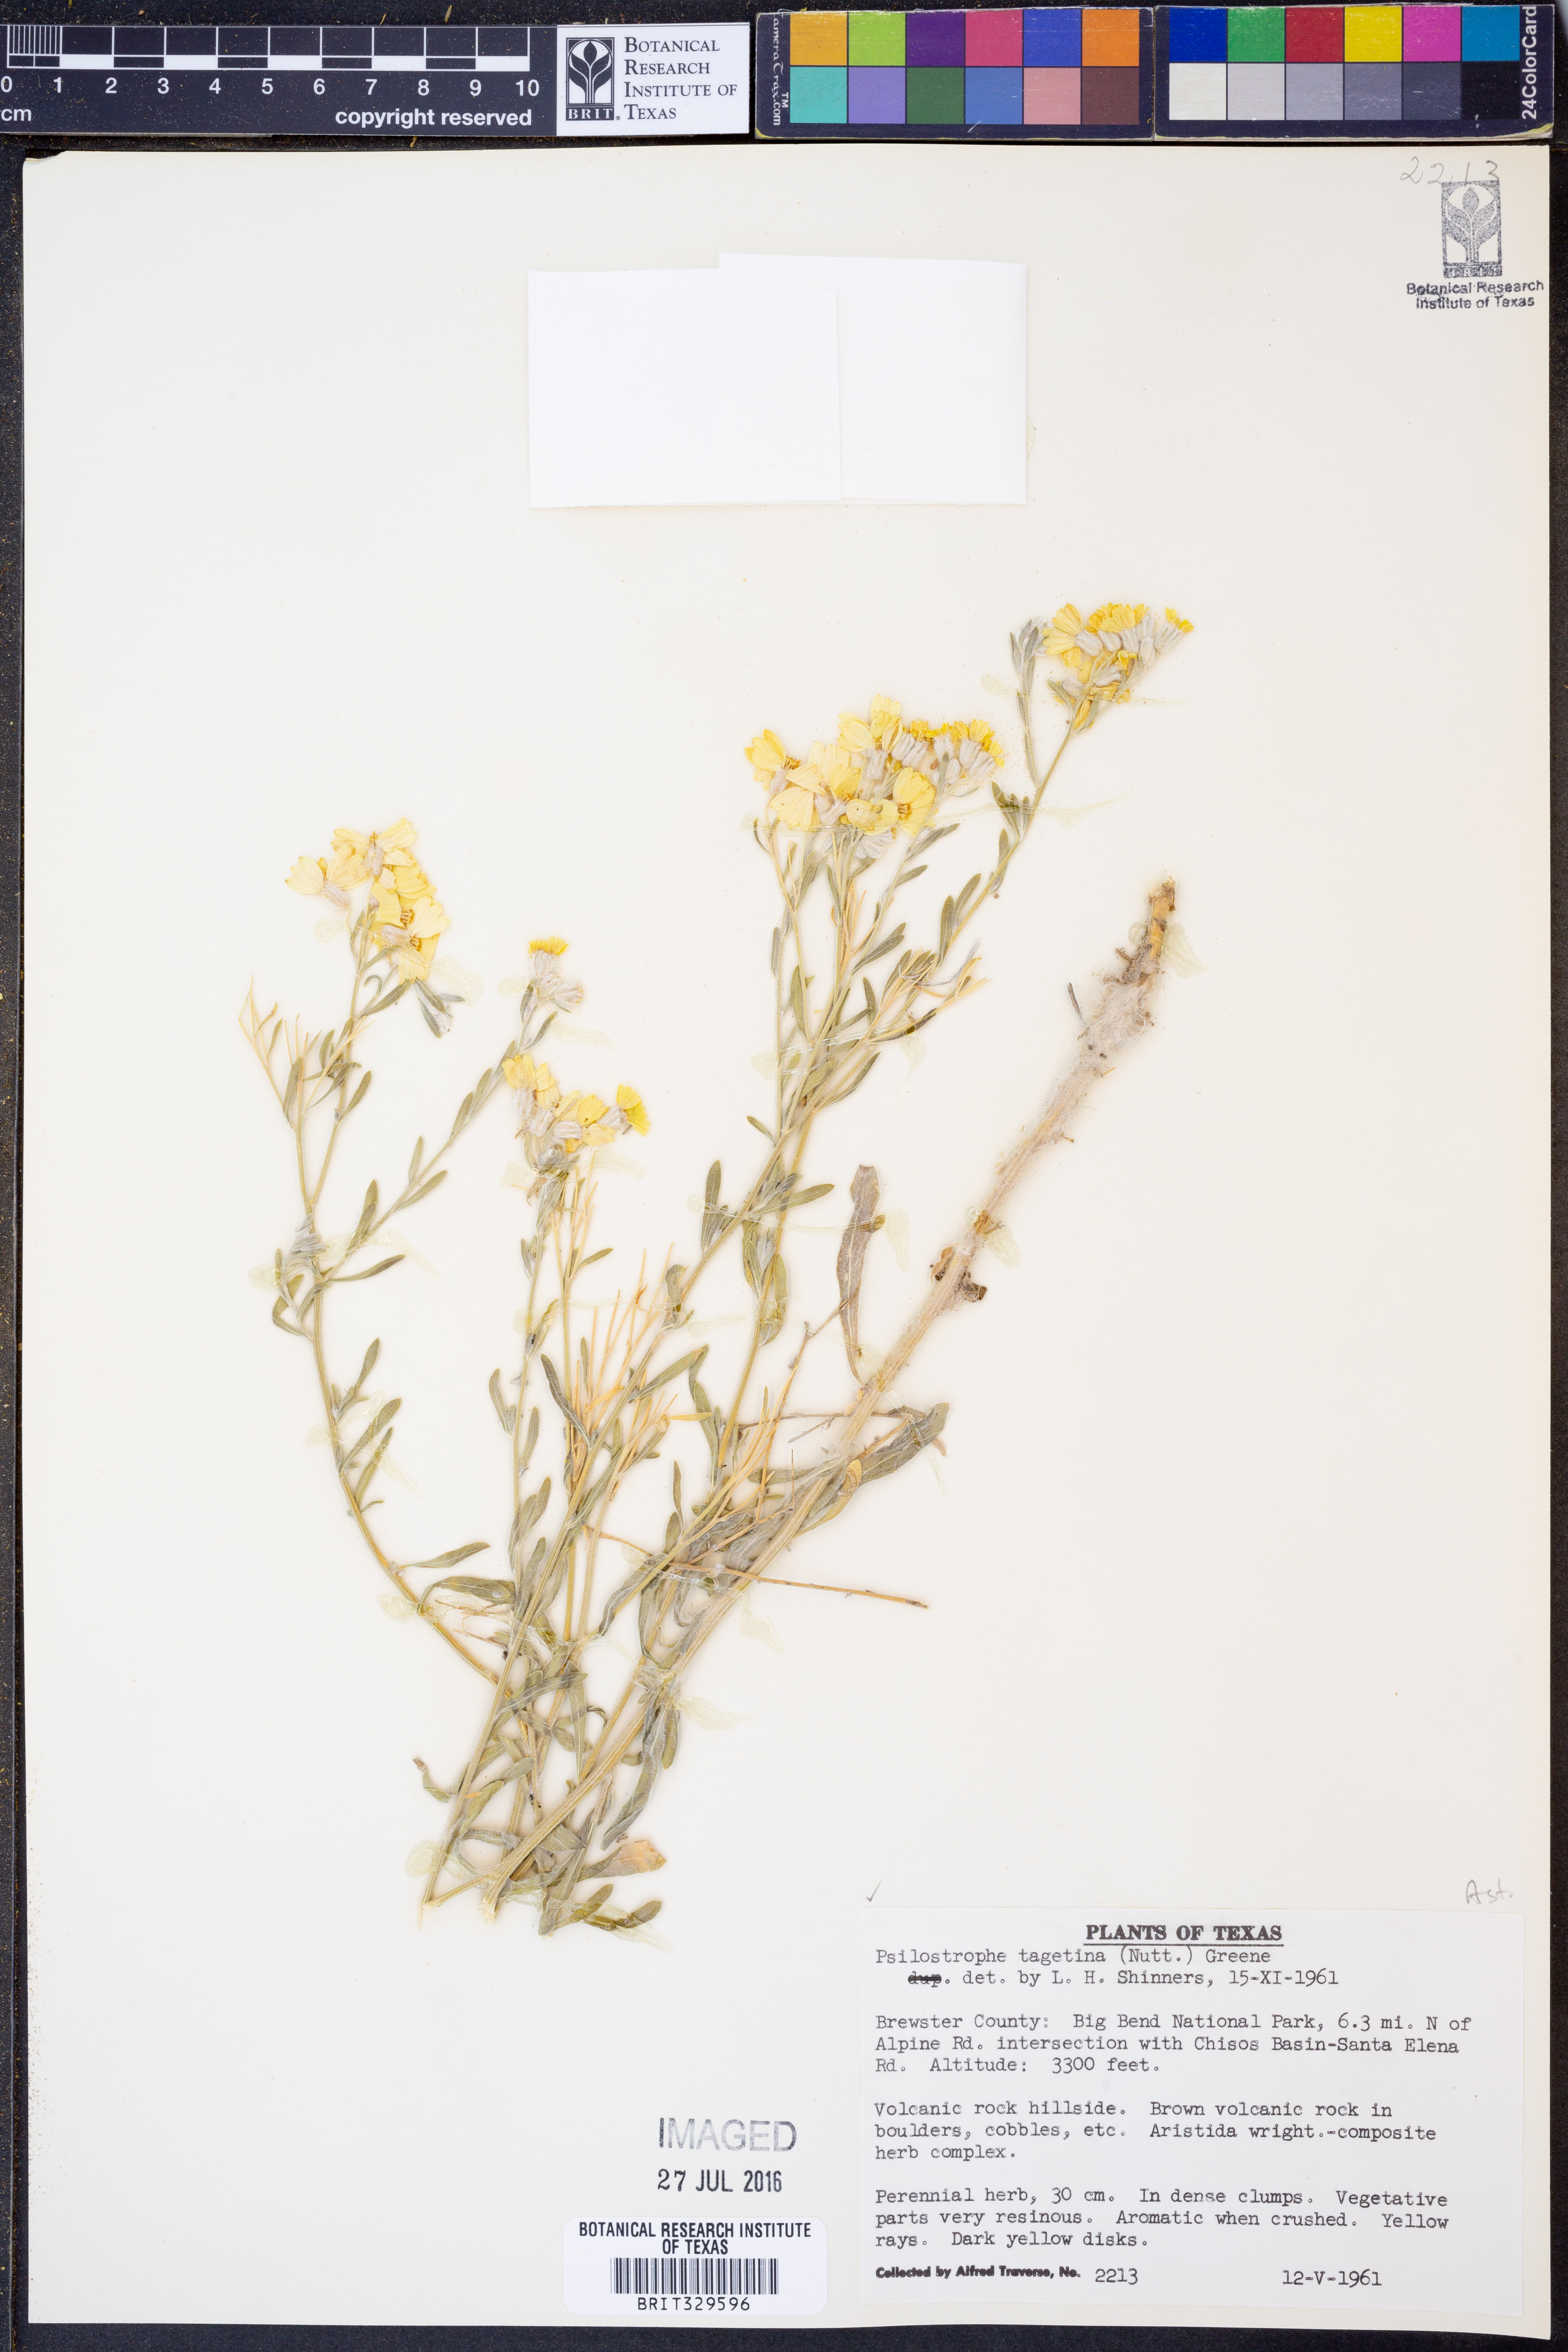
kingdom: Plantae
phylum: Tracheophyta
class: Magnoliopsida
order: Asterales
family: Asteraceae
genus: Psilostrophe
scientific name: Psilostrophe tagetina
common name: Marigold paper-flower
